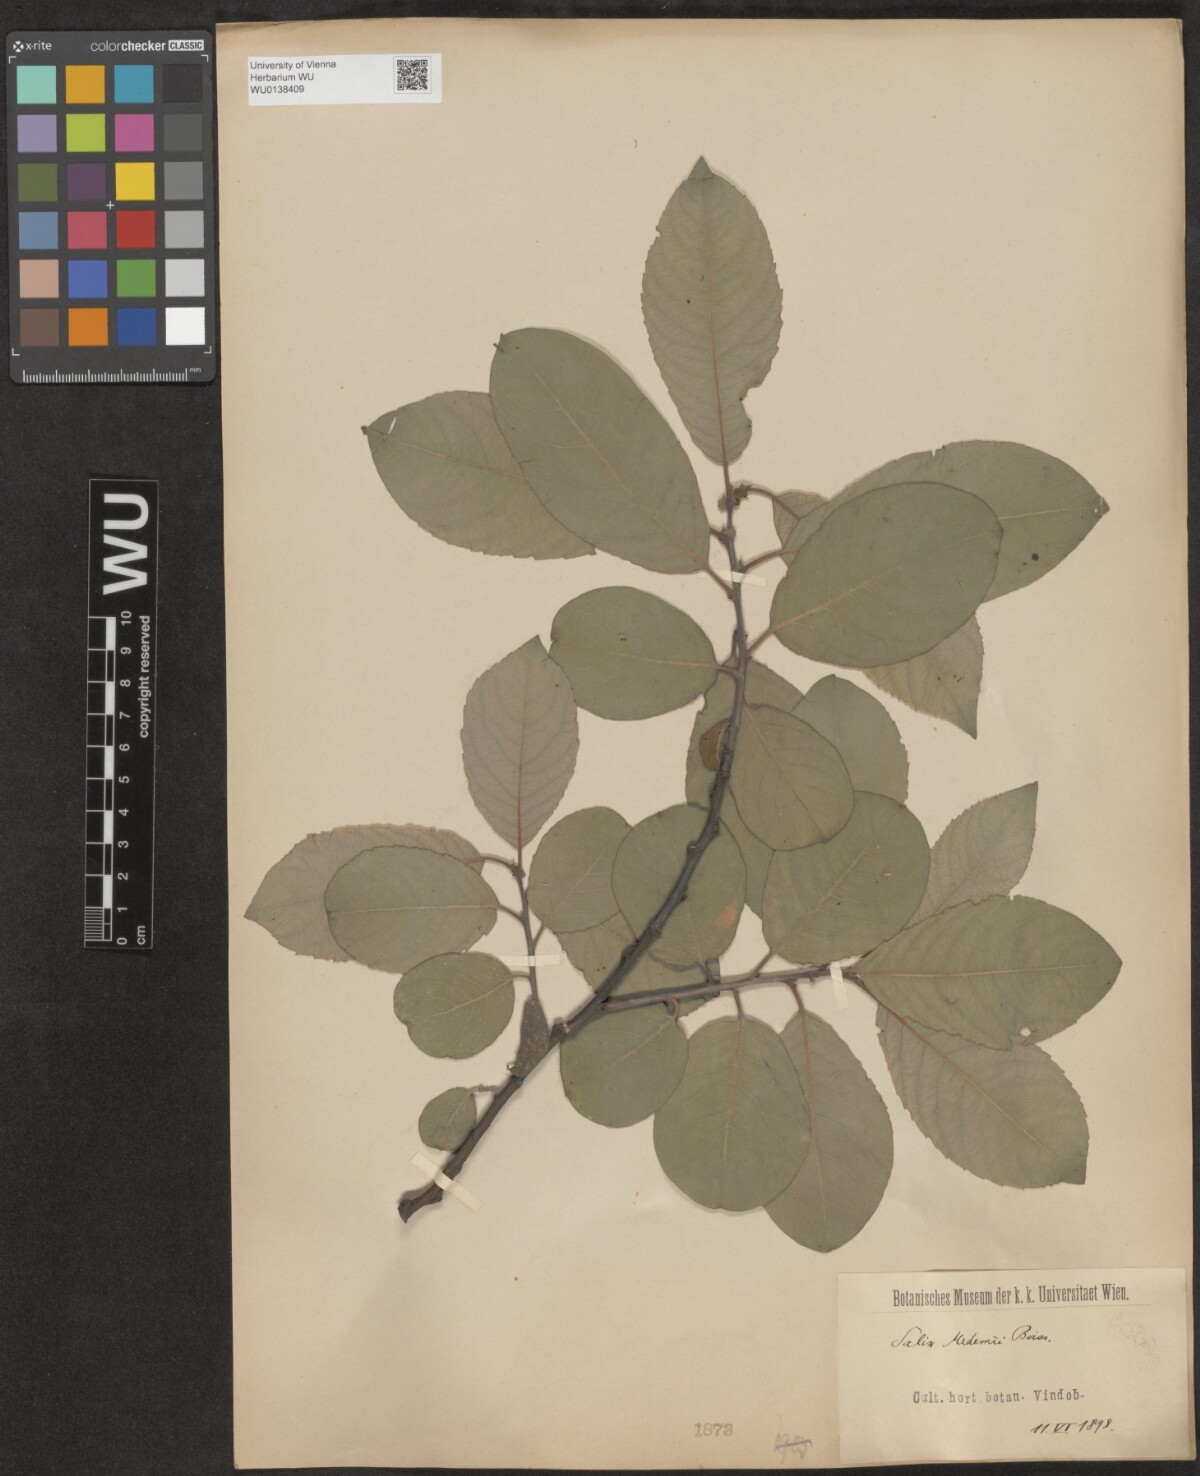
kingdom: Plantae
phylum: Tracheophyta
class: Magnoliopsida
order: Malpighiales
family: Salicaceae
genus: Salix
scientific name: Salix aegyptiaca
